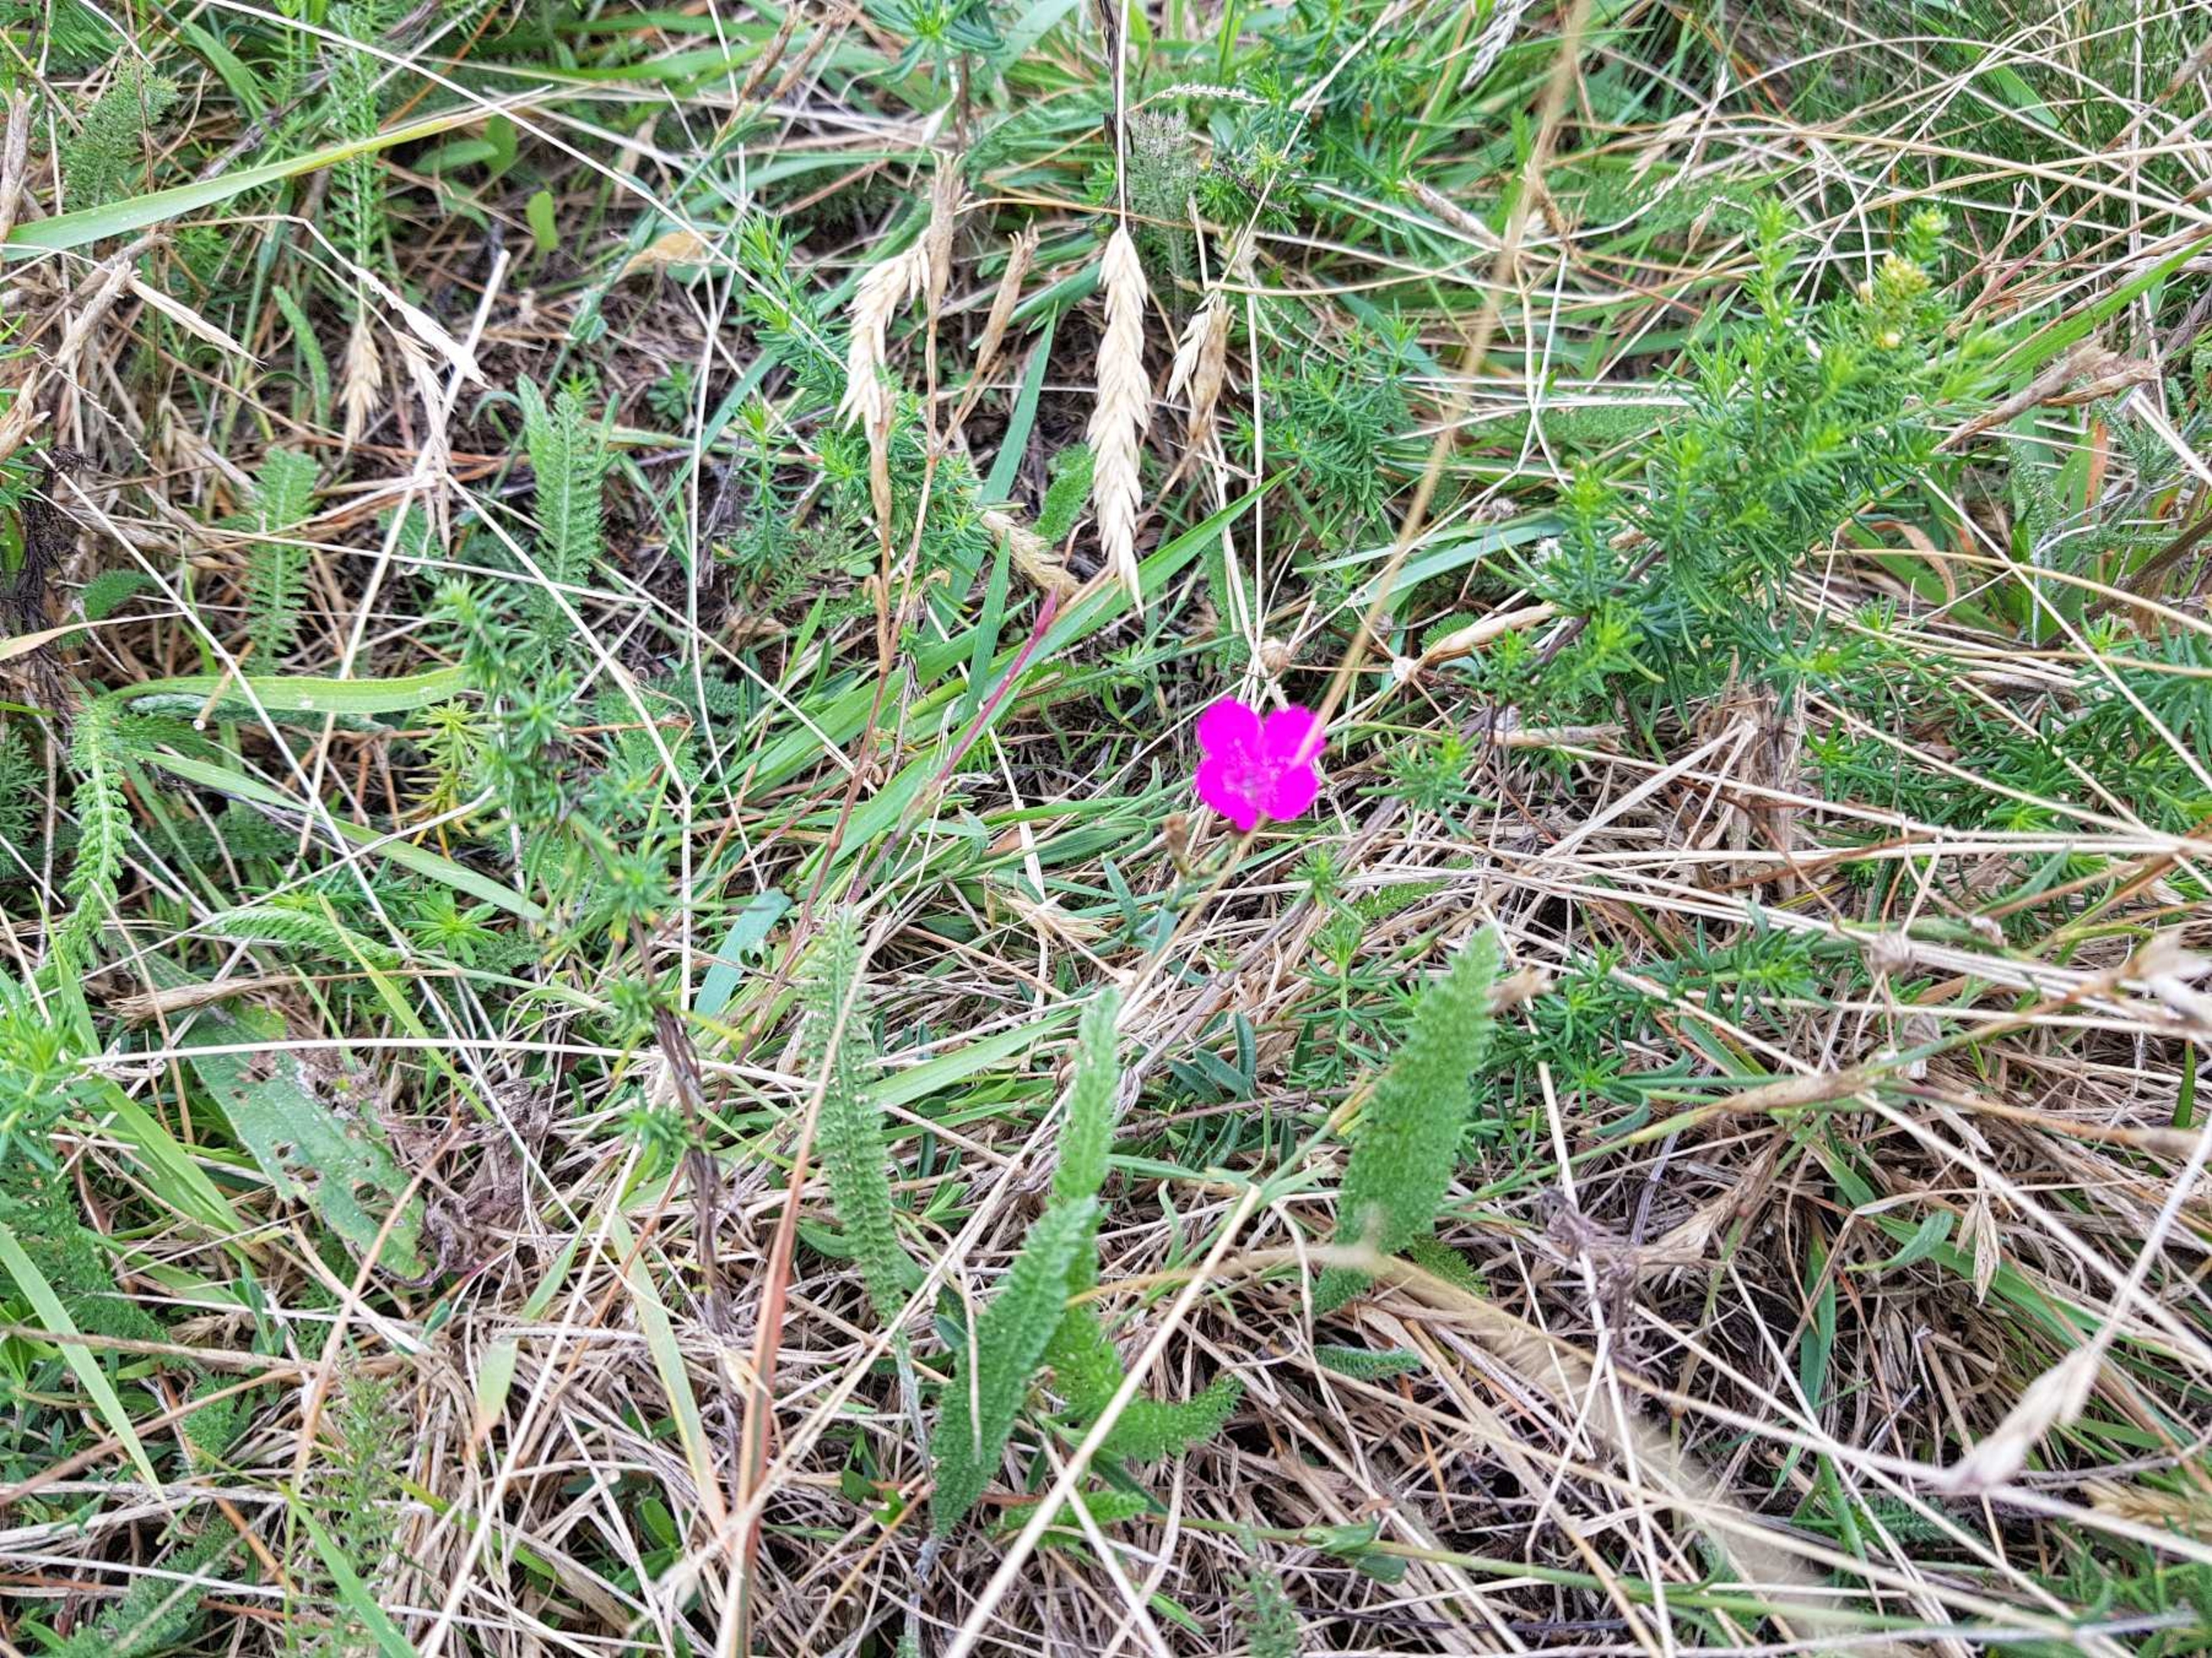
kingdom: Plantae
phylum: Tracheophyta
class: Magnoliopsida
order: Caryophyllales
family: Caryophyllaceae
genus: Dianthus
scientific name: Dianthus deltoides
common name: Bakke-nellike
